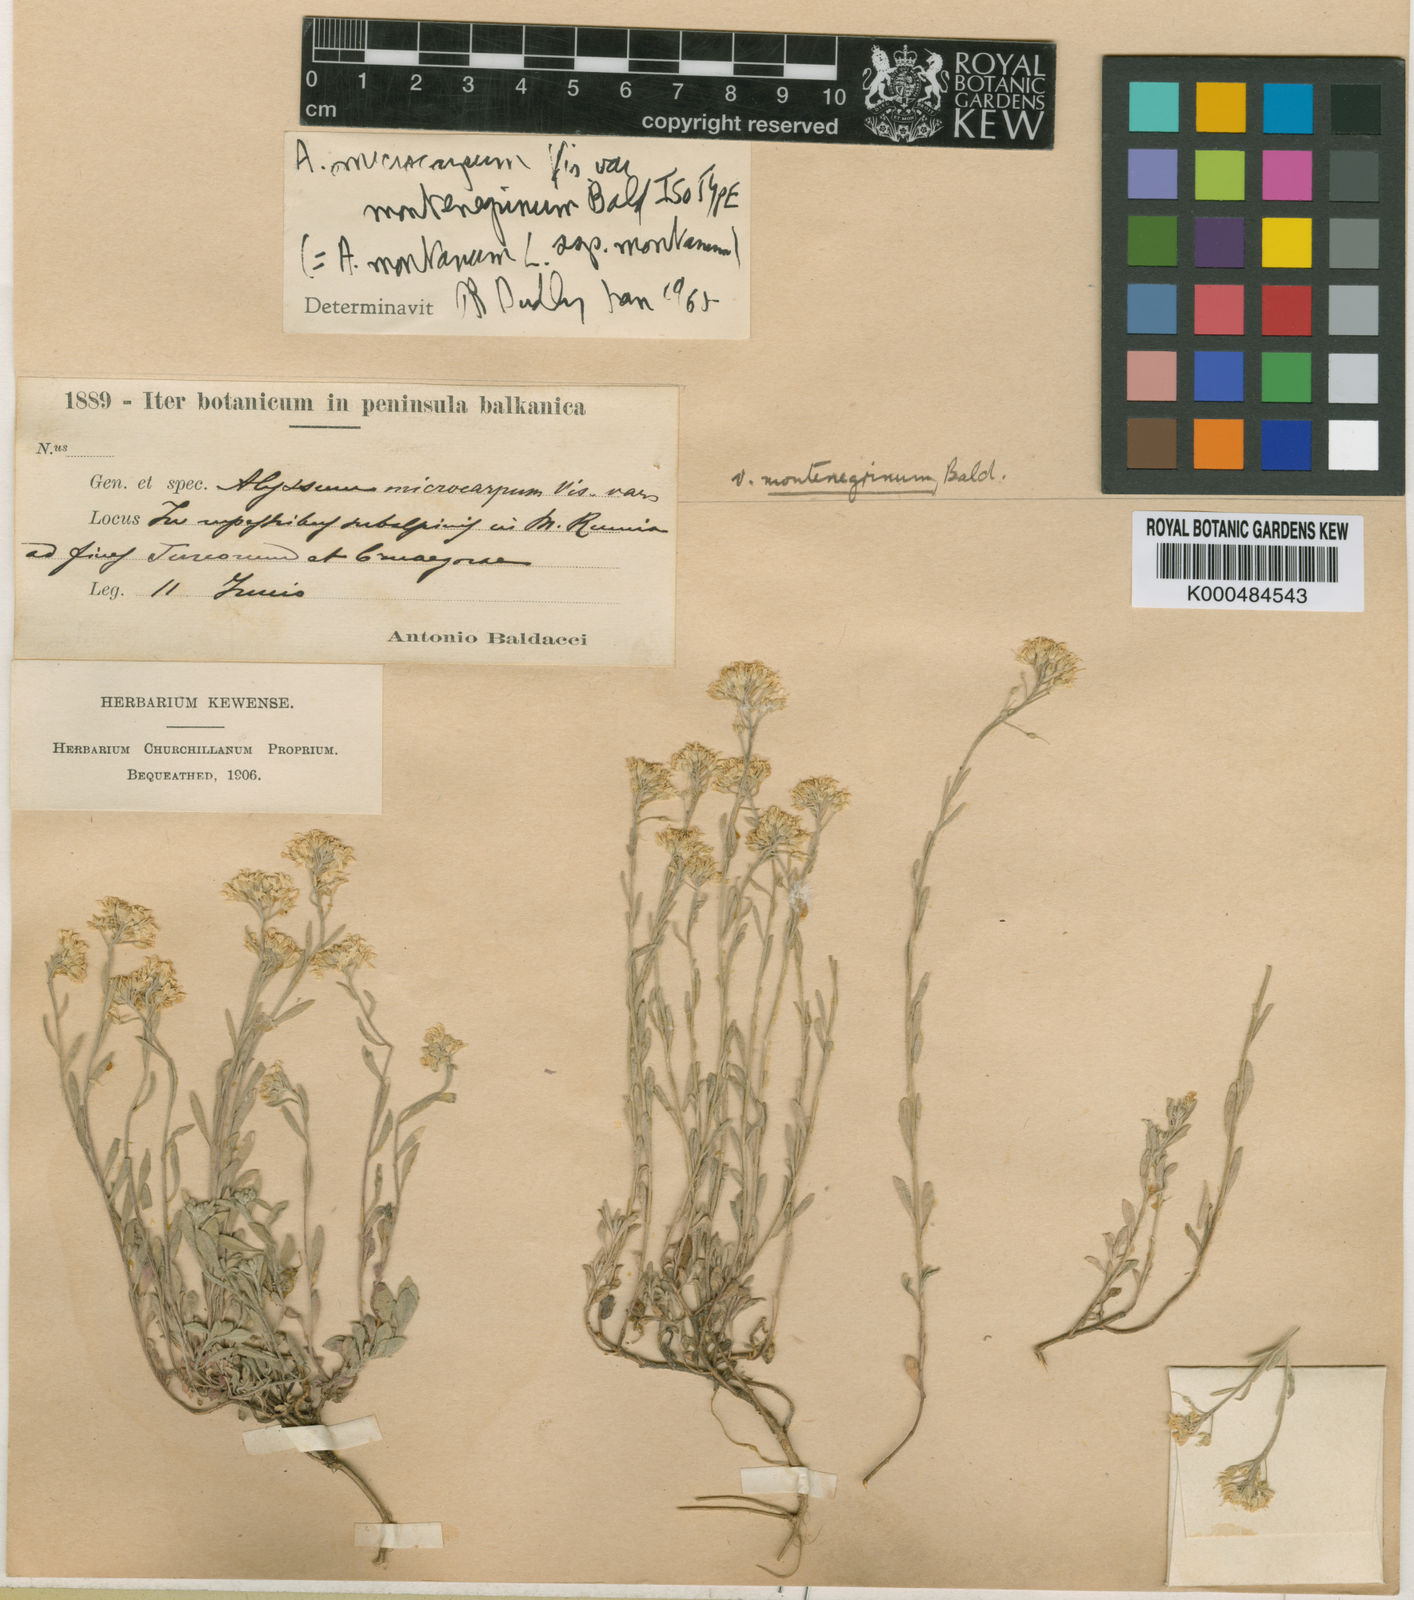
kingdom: Plantae
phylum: Tracheophyta
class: Magnoliopsida
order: Brassicales
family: Brassicaceae
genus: Alyssum
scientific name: Alyssum montenegrinum
